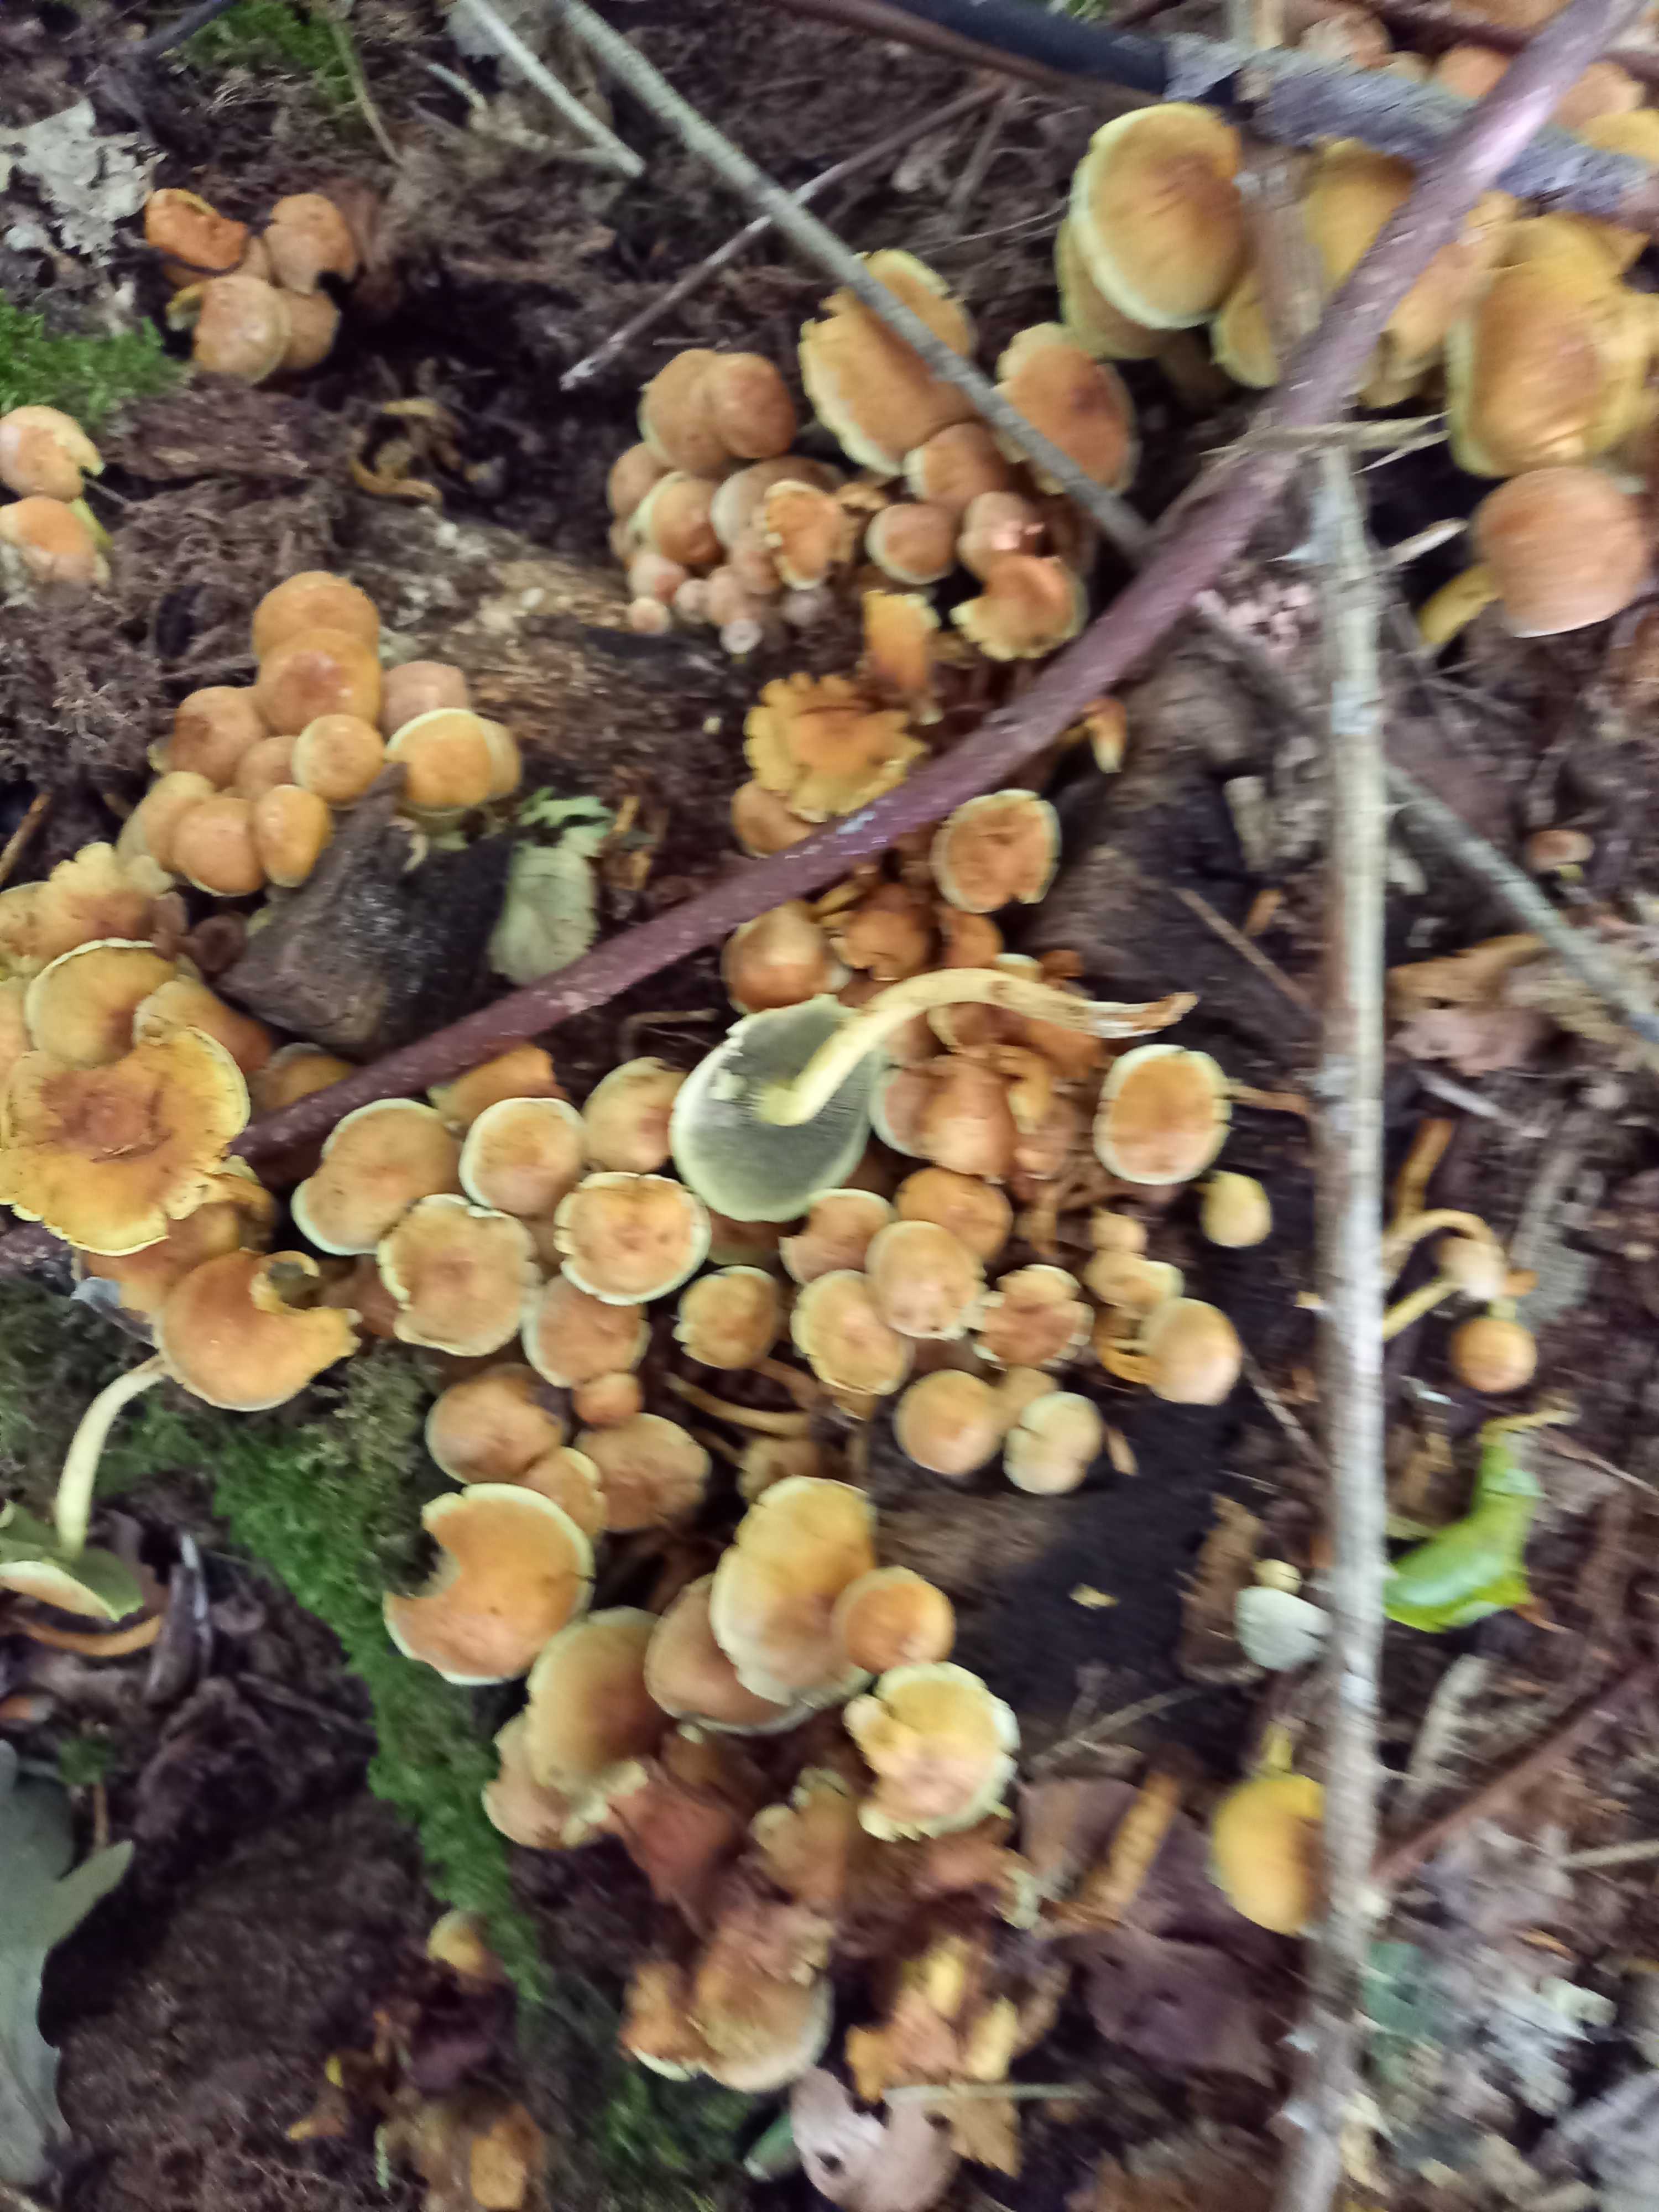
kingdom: Fungi
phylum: Basidiomycota
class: Agaricomycetes
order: Agaricales
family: Strophariaceae
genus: Hypholoma
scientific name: Hypholoma fasciculare
